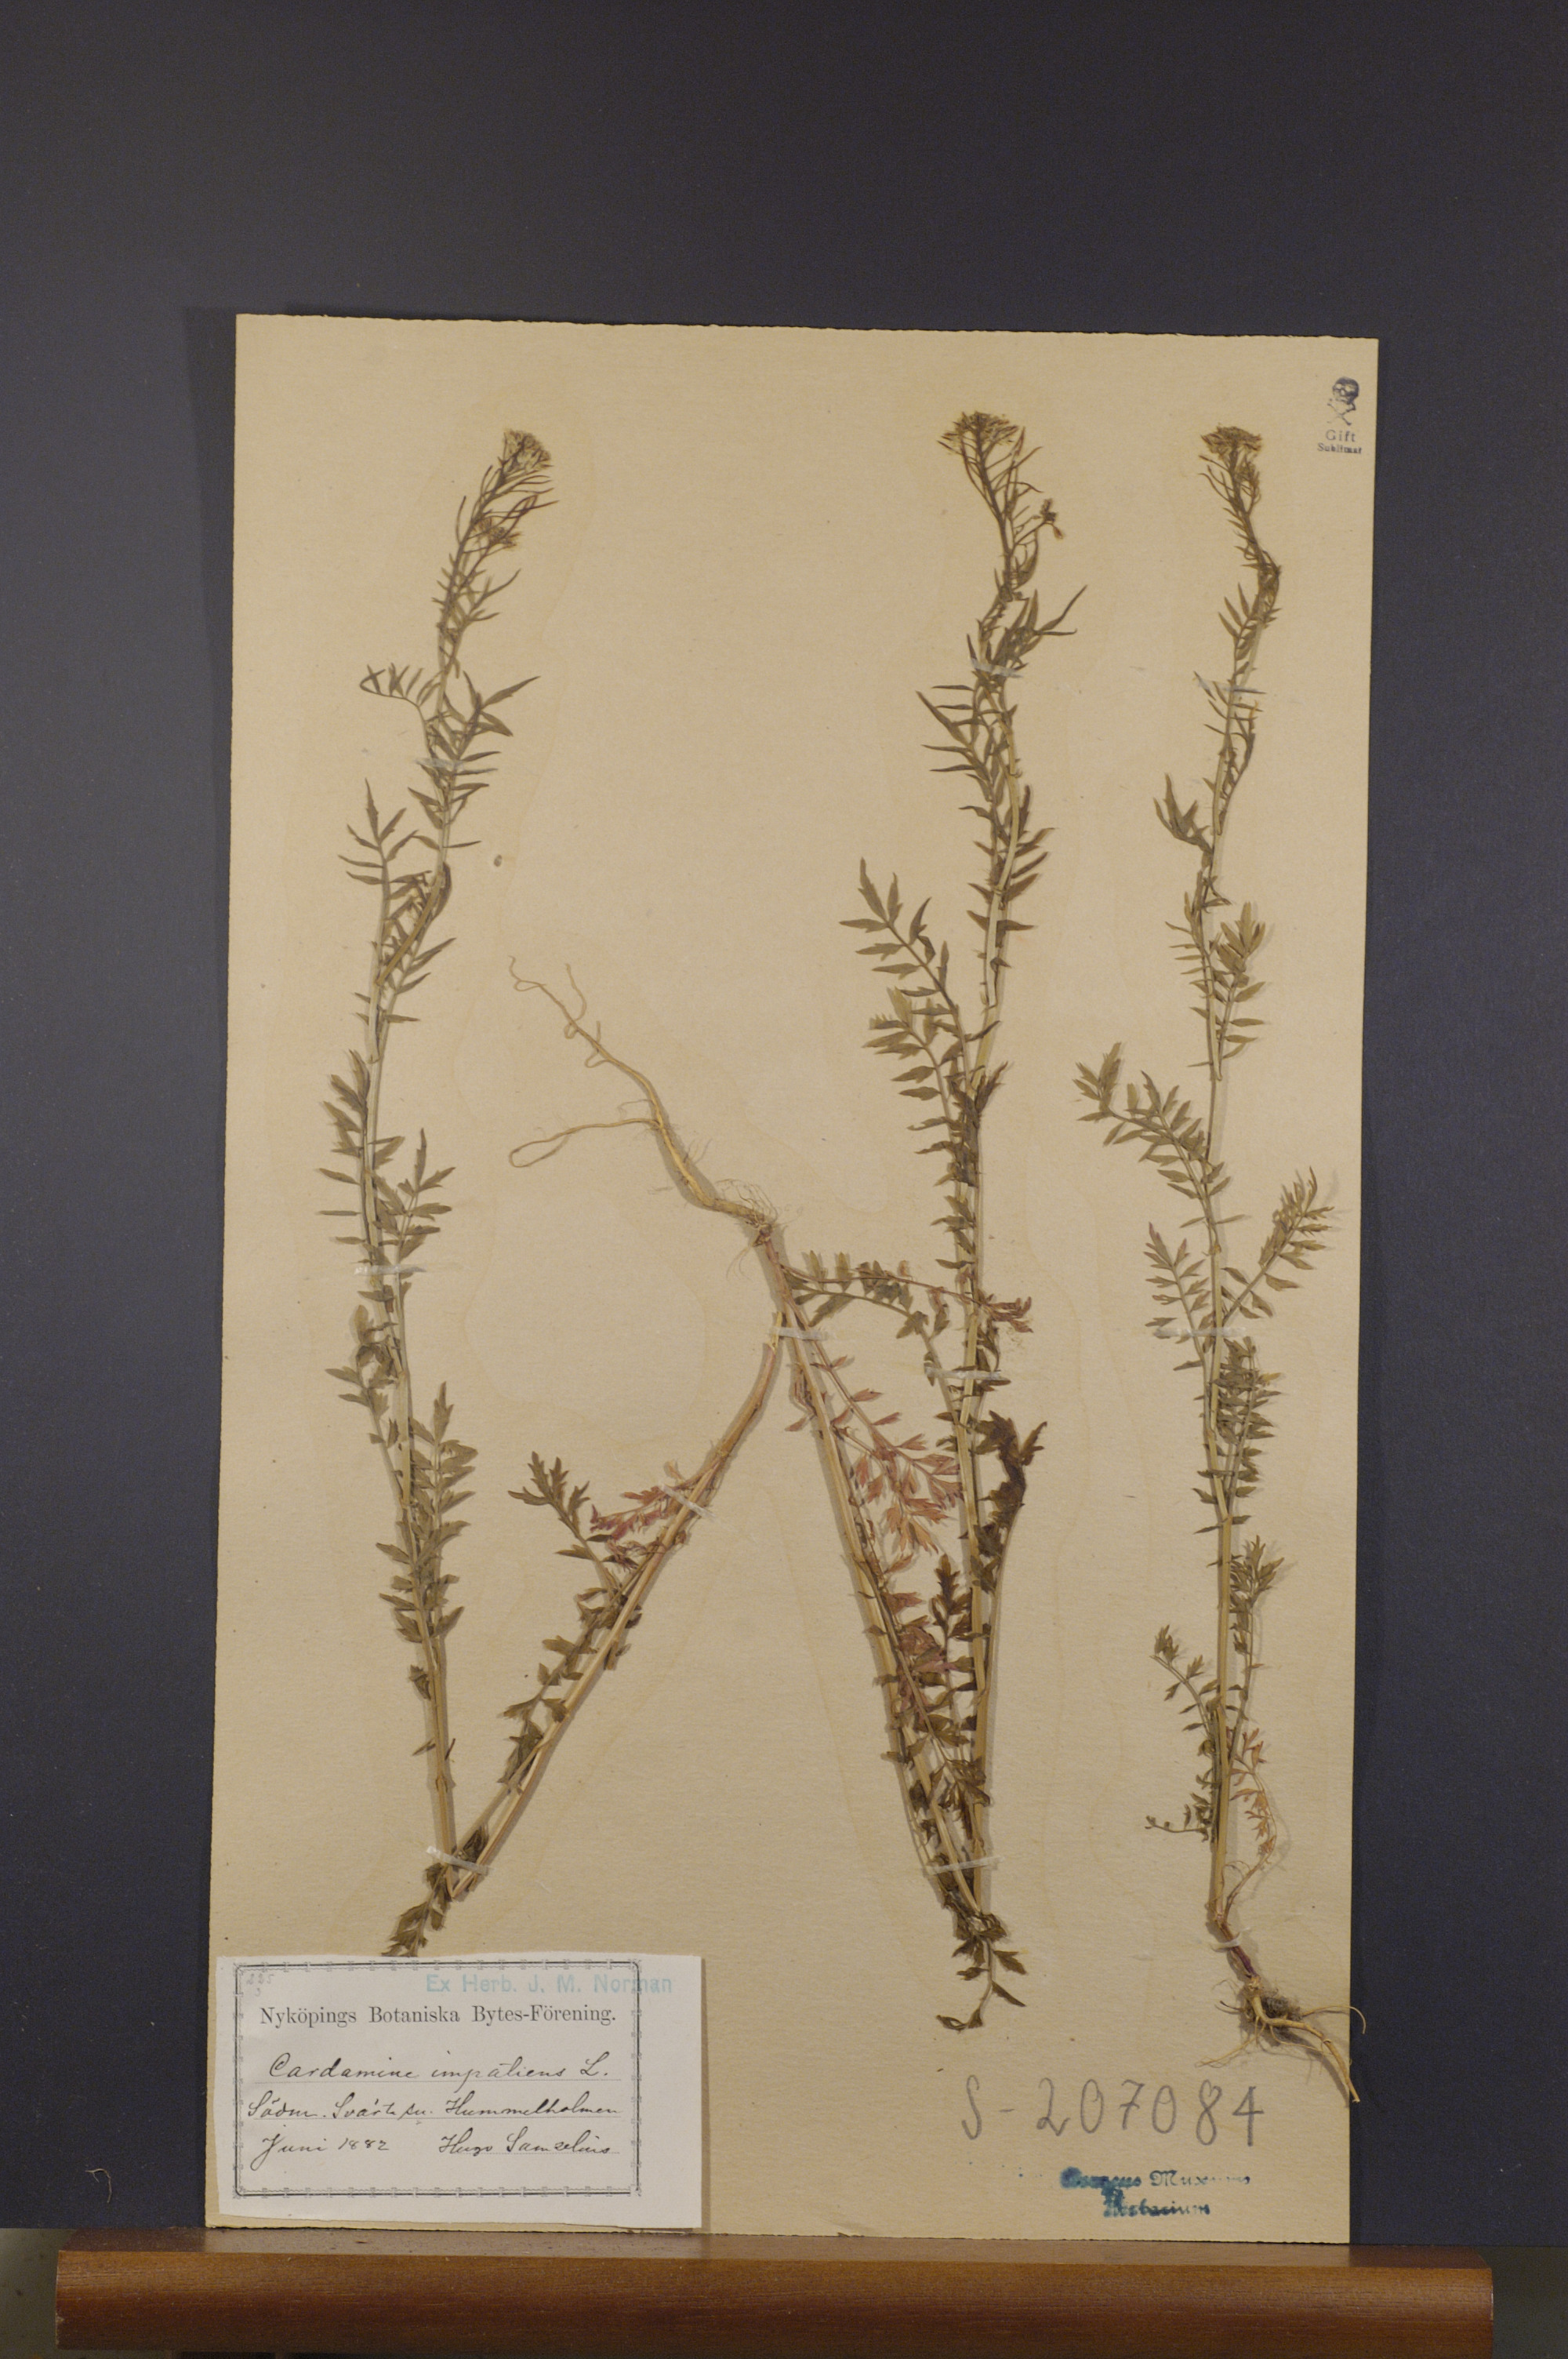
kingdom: Plantae
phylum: Tracheophyta
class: Magnoliopsida
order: Brassicales
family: Brassicaceae
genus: Cardamine
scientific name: Cardamine impatiens
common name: Narrow-leaved bitter-cress
